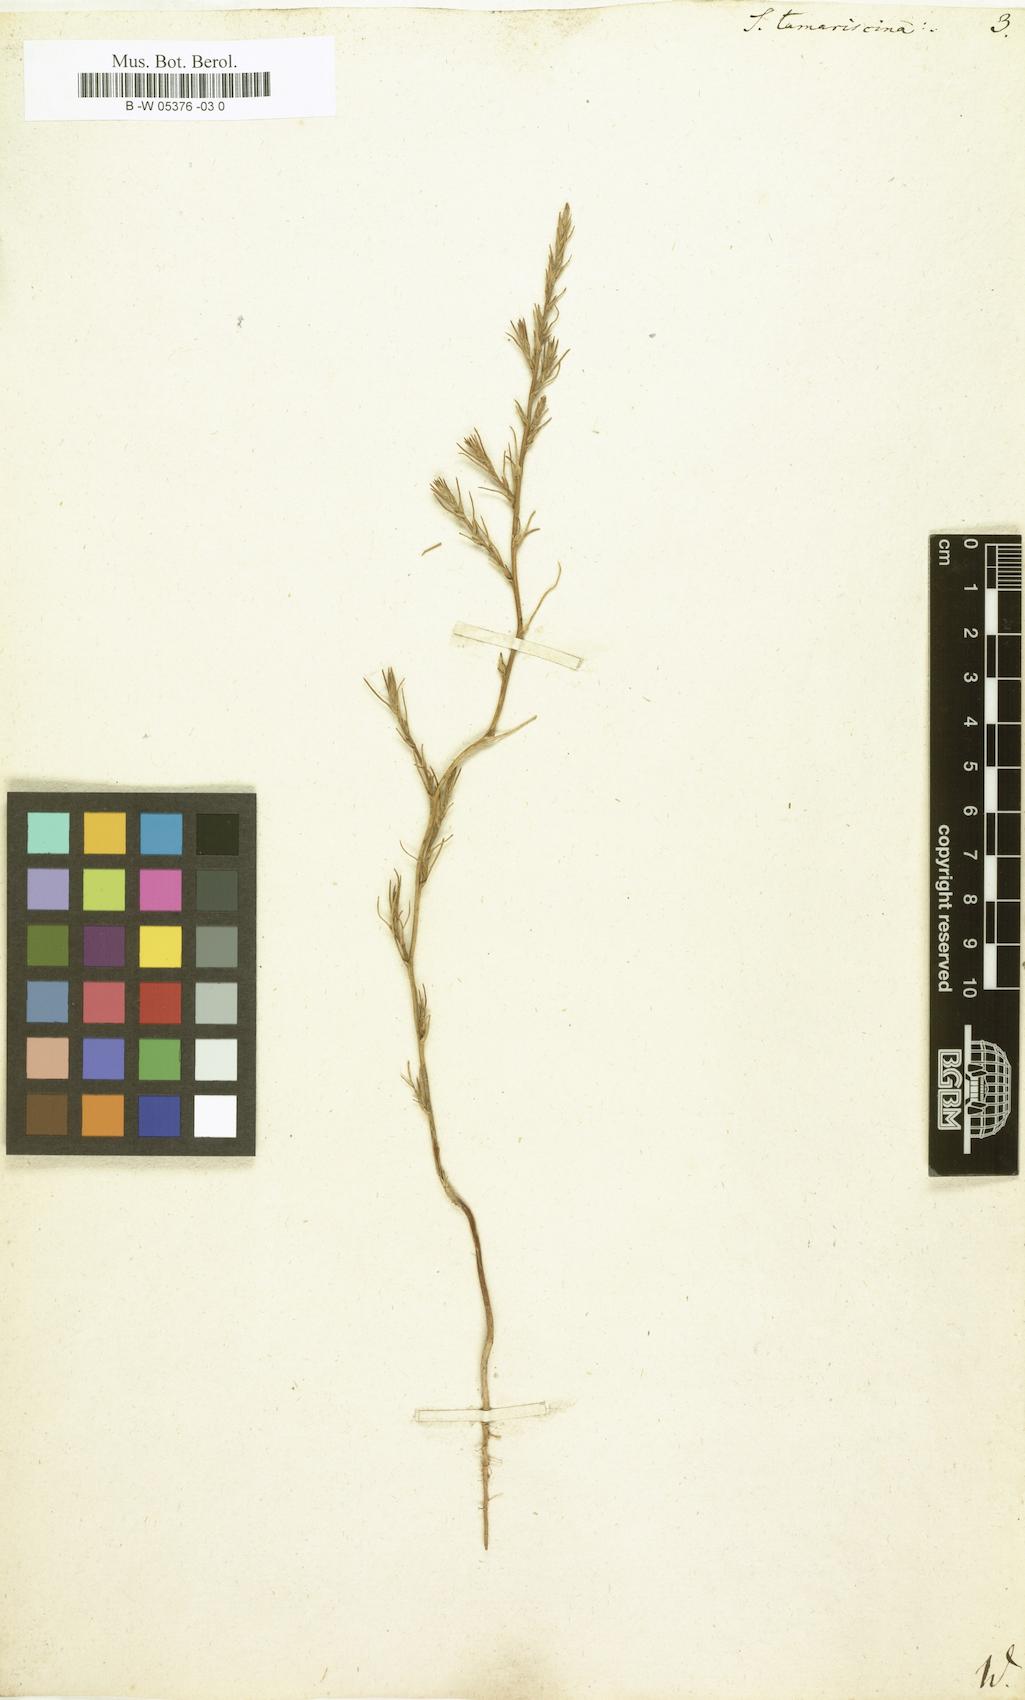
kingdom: Plantae
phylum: Tracheophyta
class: Magnoliopsida
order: Caryophyllales
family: Amaranthaceae
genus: Salsola
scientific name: Salsola tamariscina
